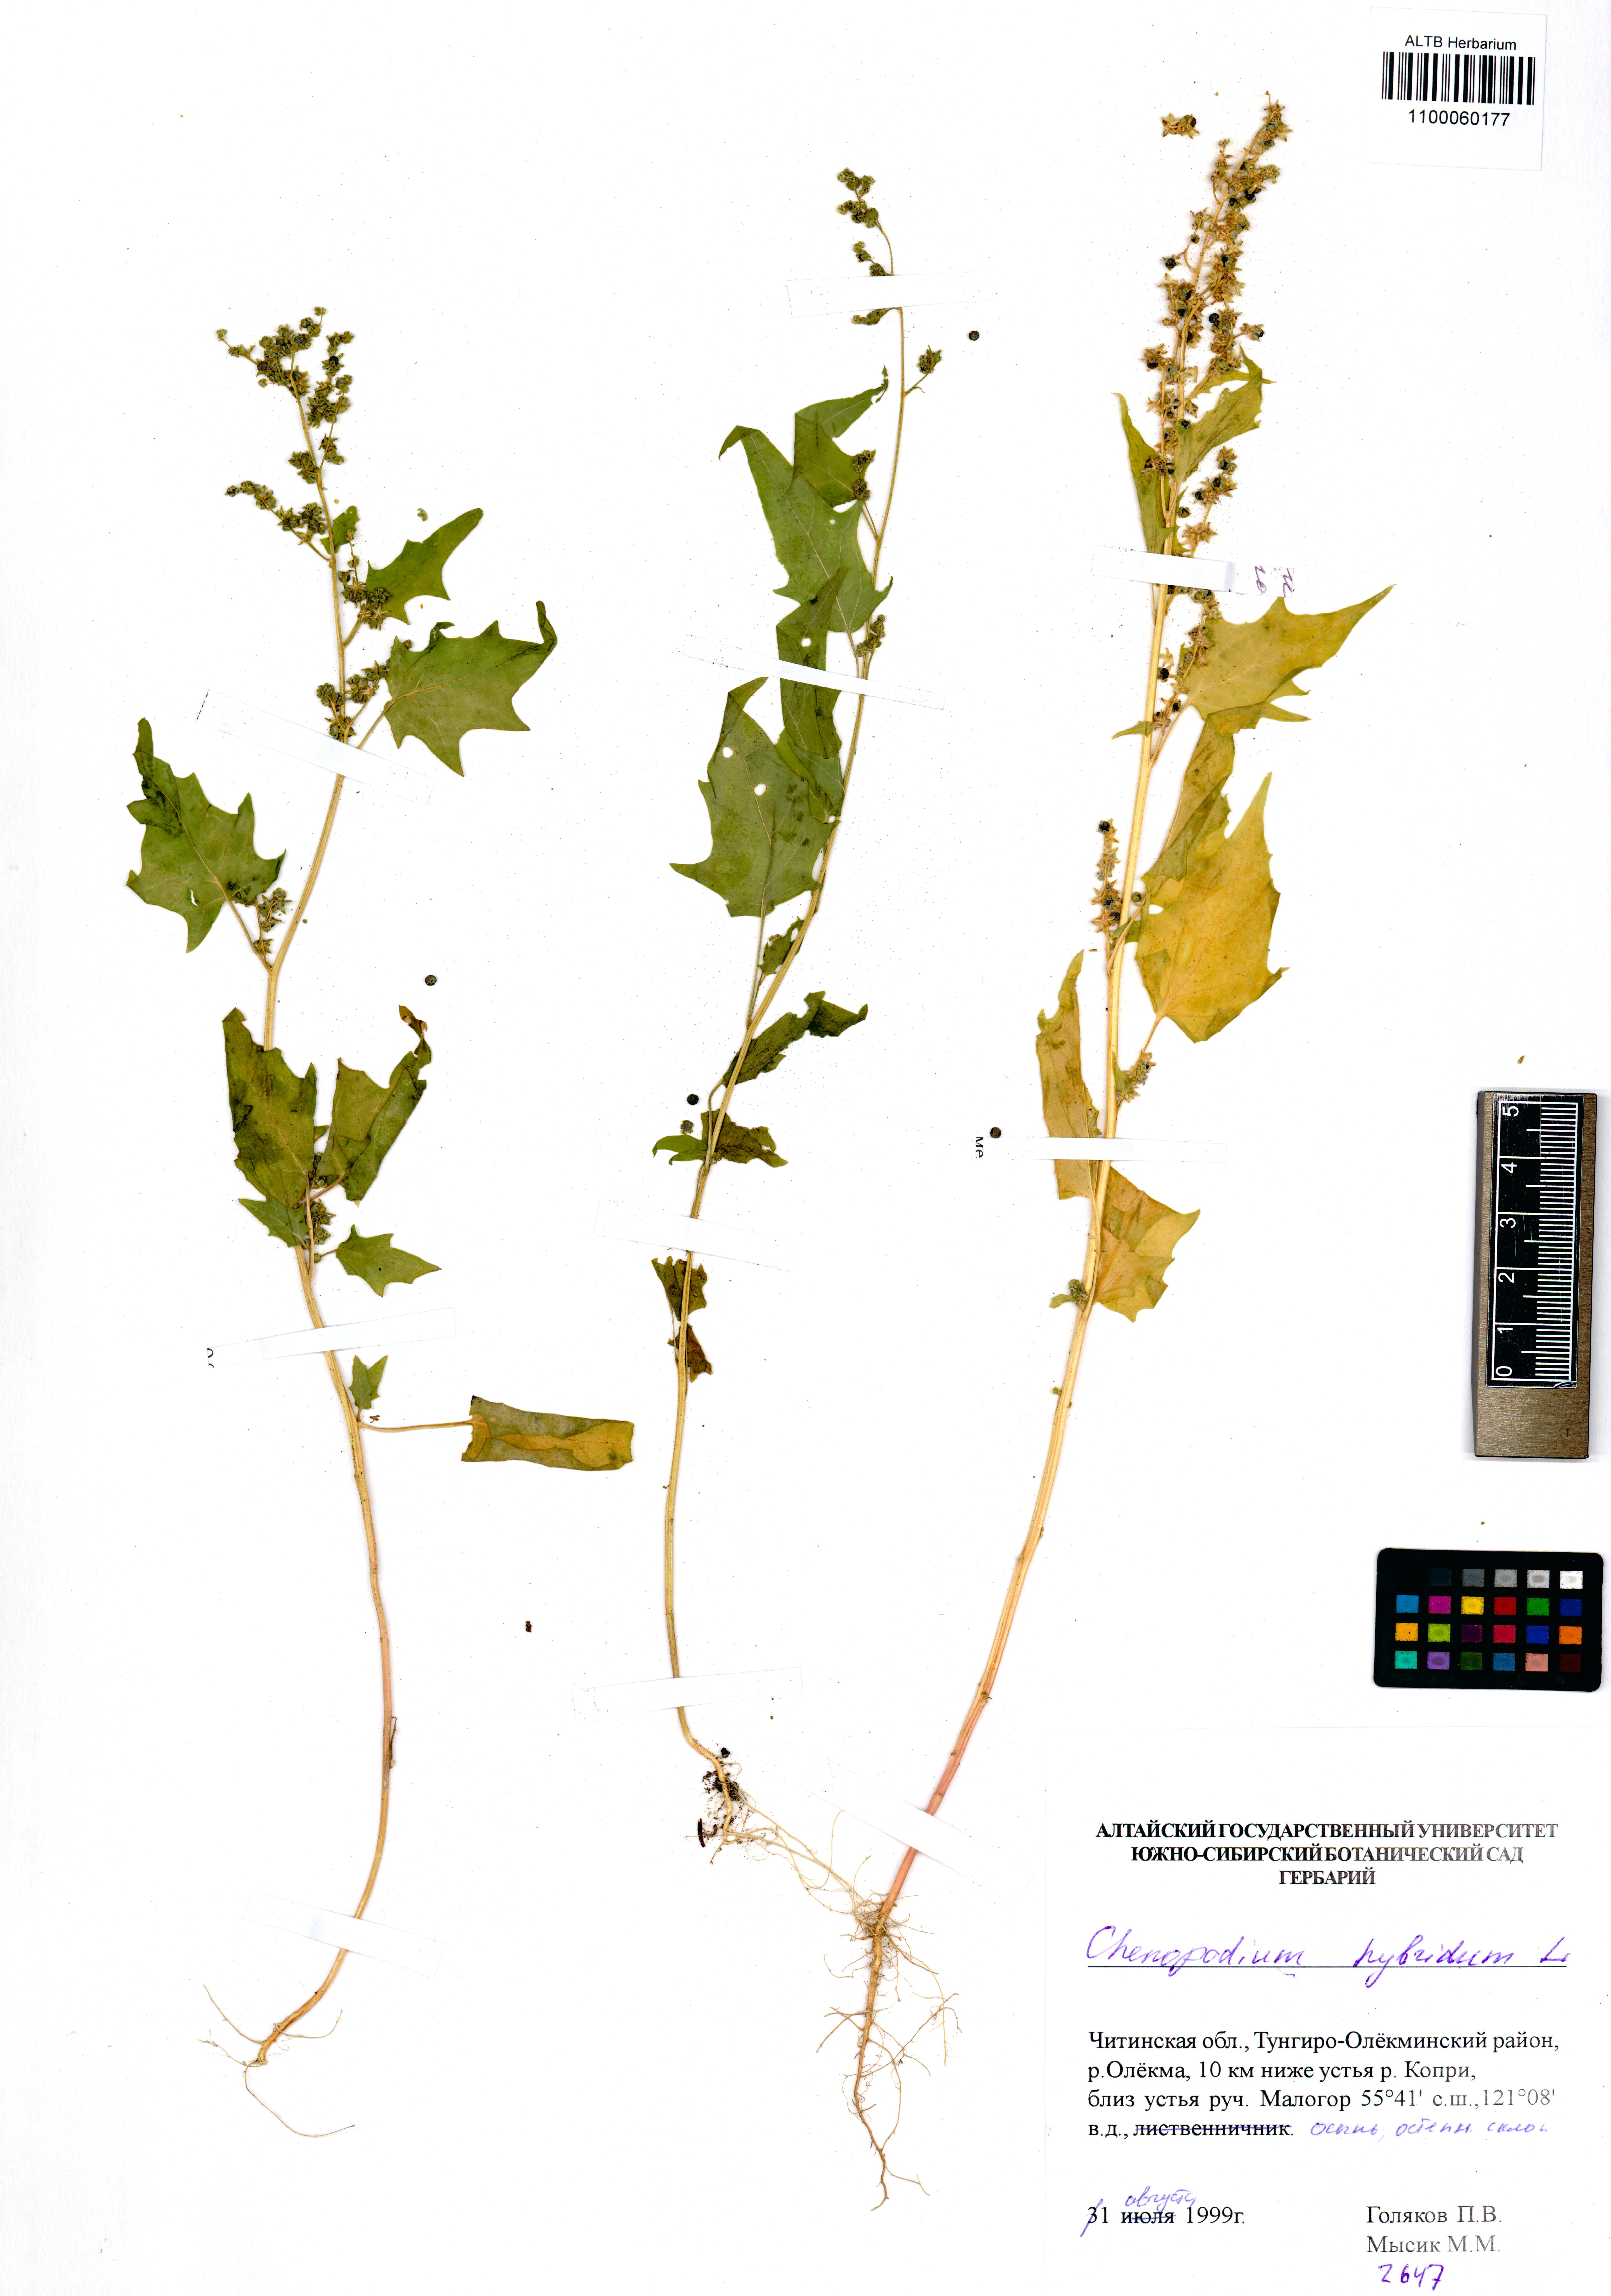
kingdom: Plantae
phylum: Tracheophyta
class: Magnoliopsida
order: Caryophyllales
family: Amaranthaceae
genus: Chenopodiastrum
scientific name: Chenopodiastrum hybridum
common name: Mapleleaf goosefoot
